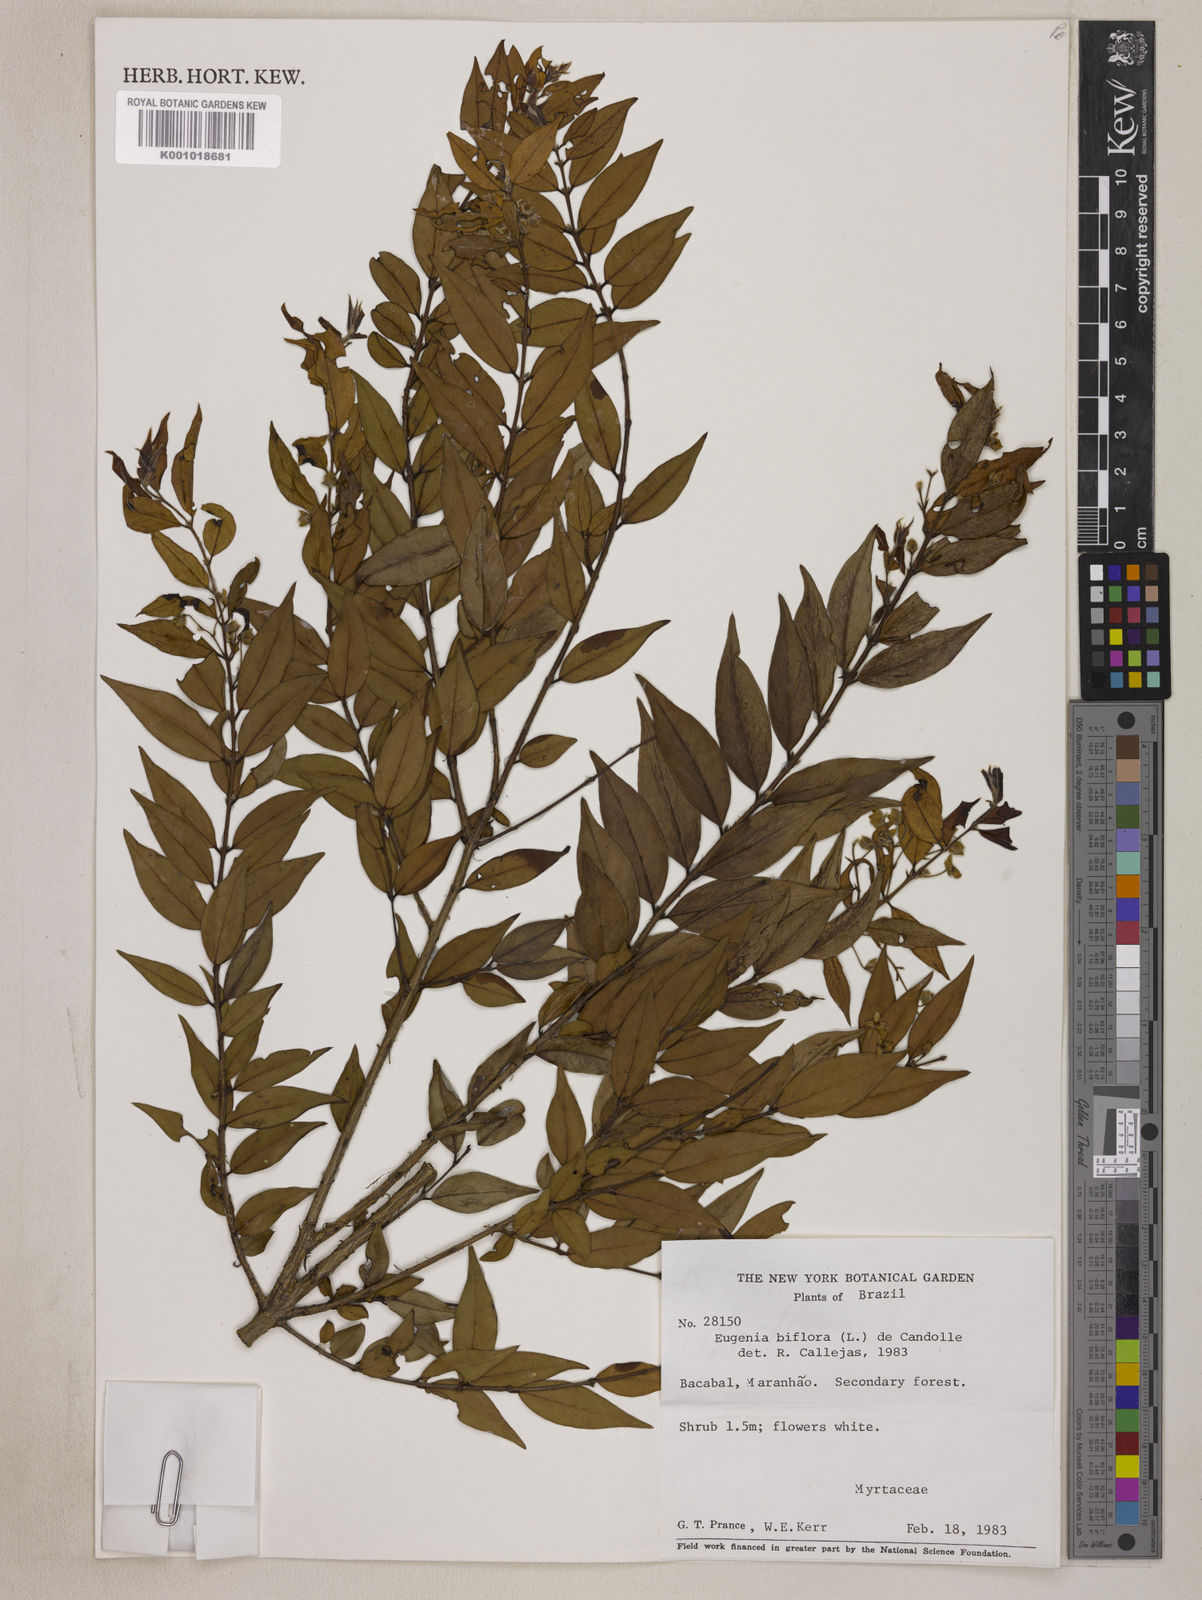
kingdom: Plantae
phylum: Tracheophyta
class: Magnoliopsida
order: Myrtales
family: Myrtaceae
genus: Eugenia
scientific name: Eugenia biflora
